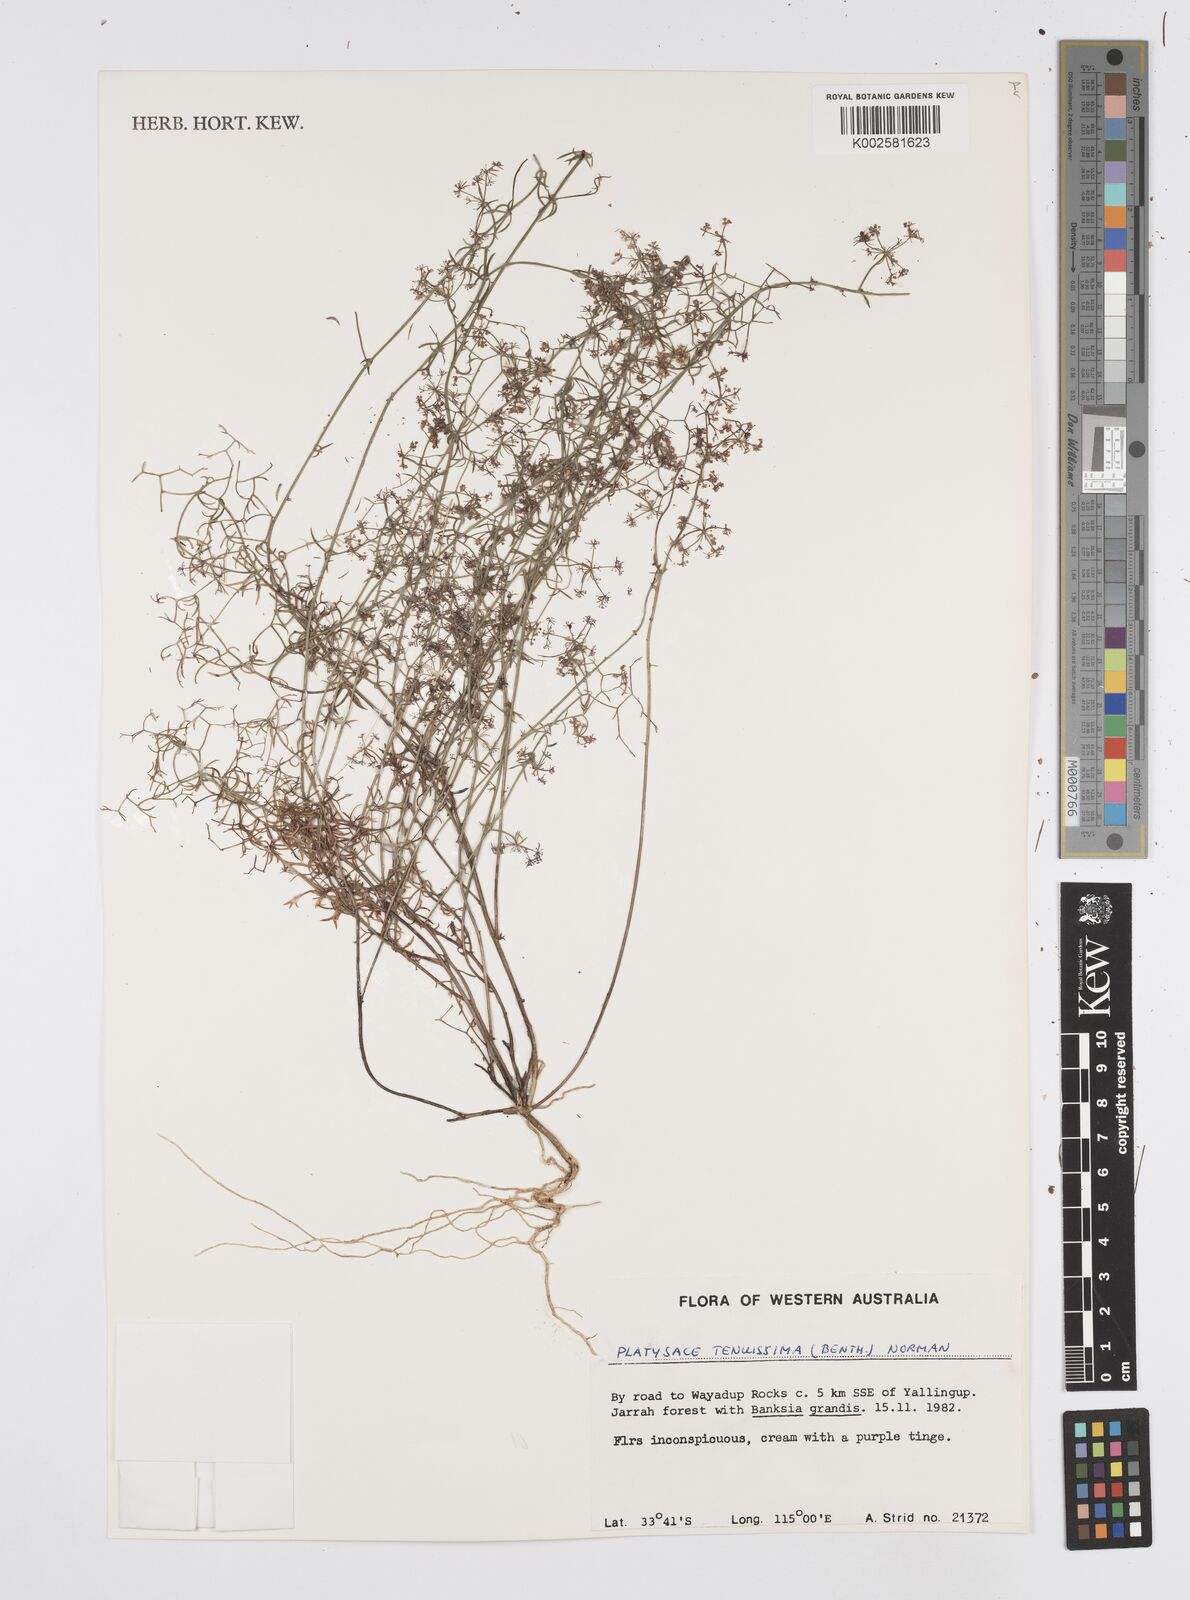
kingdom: Plantae
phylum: Tracheophyta
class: Magnoliopsida
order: Apiales
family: Apiaceae
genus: Platysace
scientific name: Platysace tenuissima
